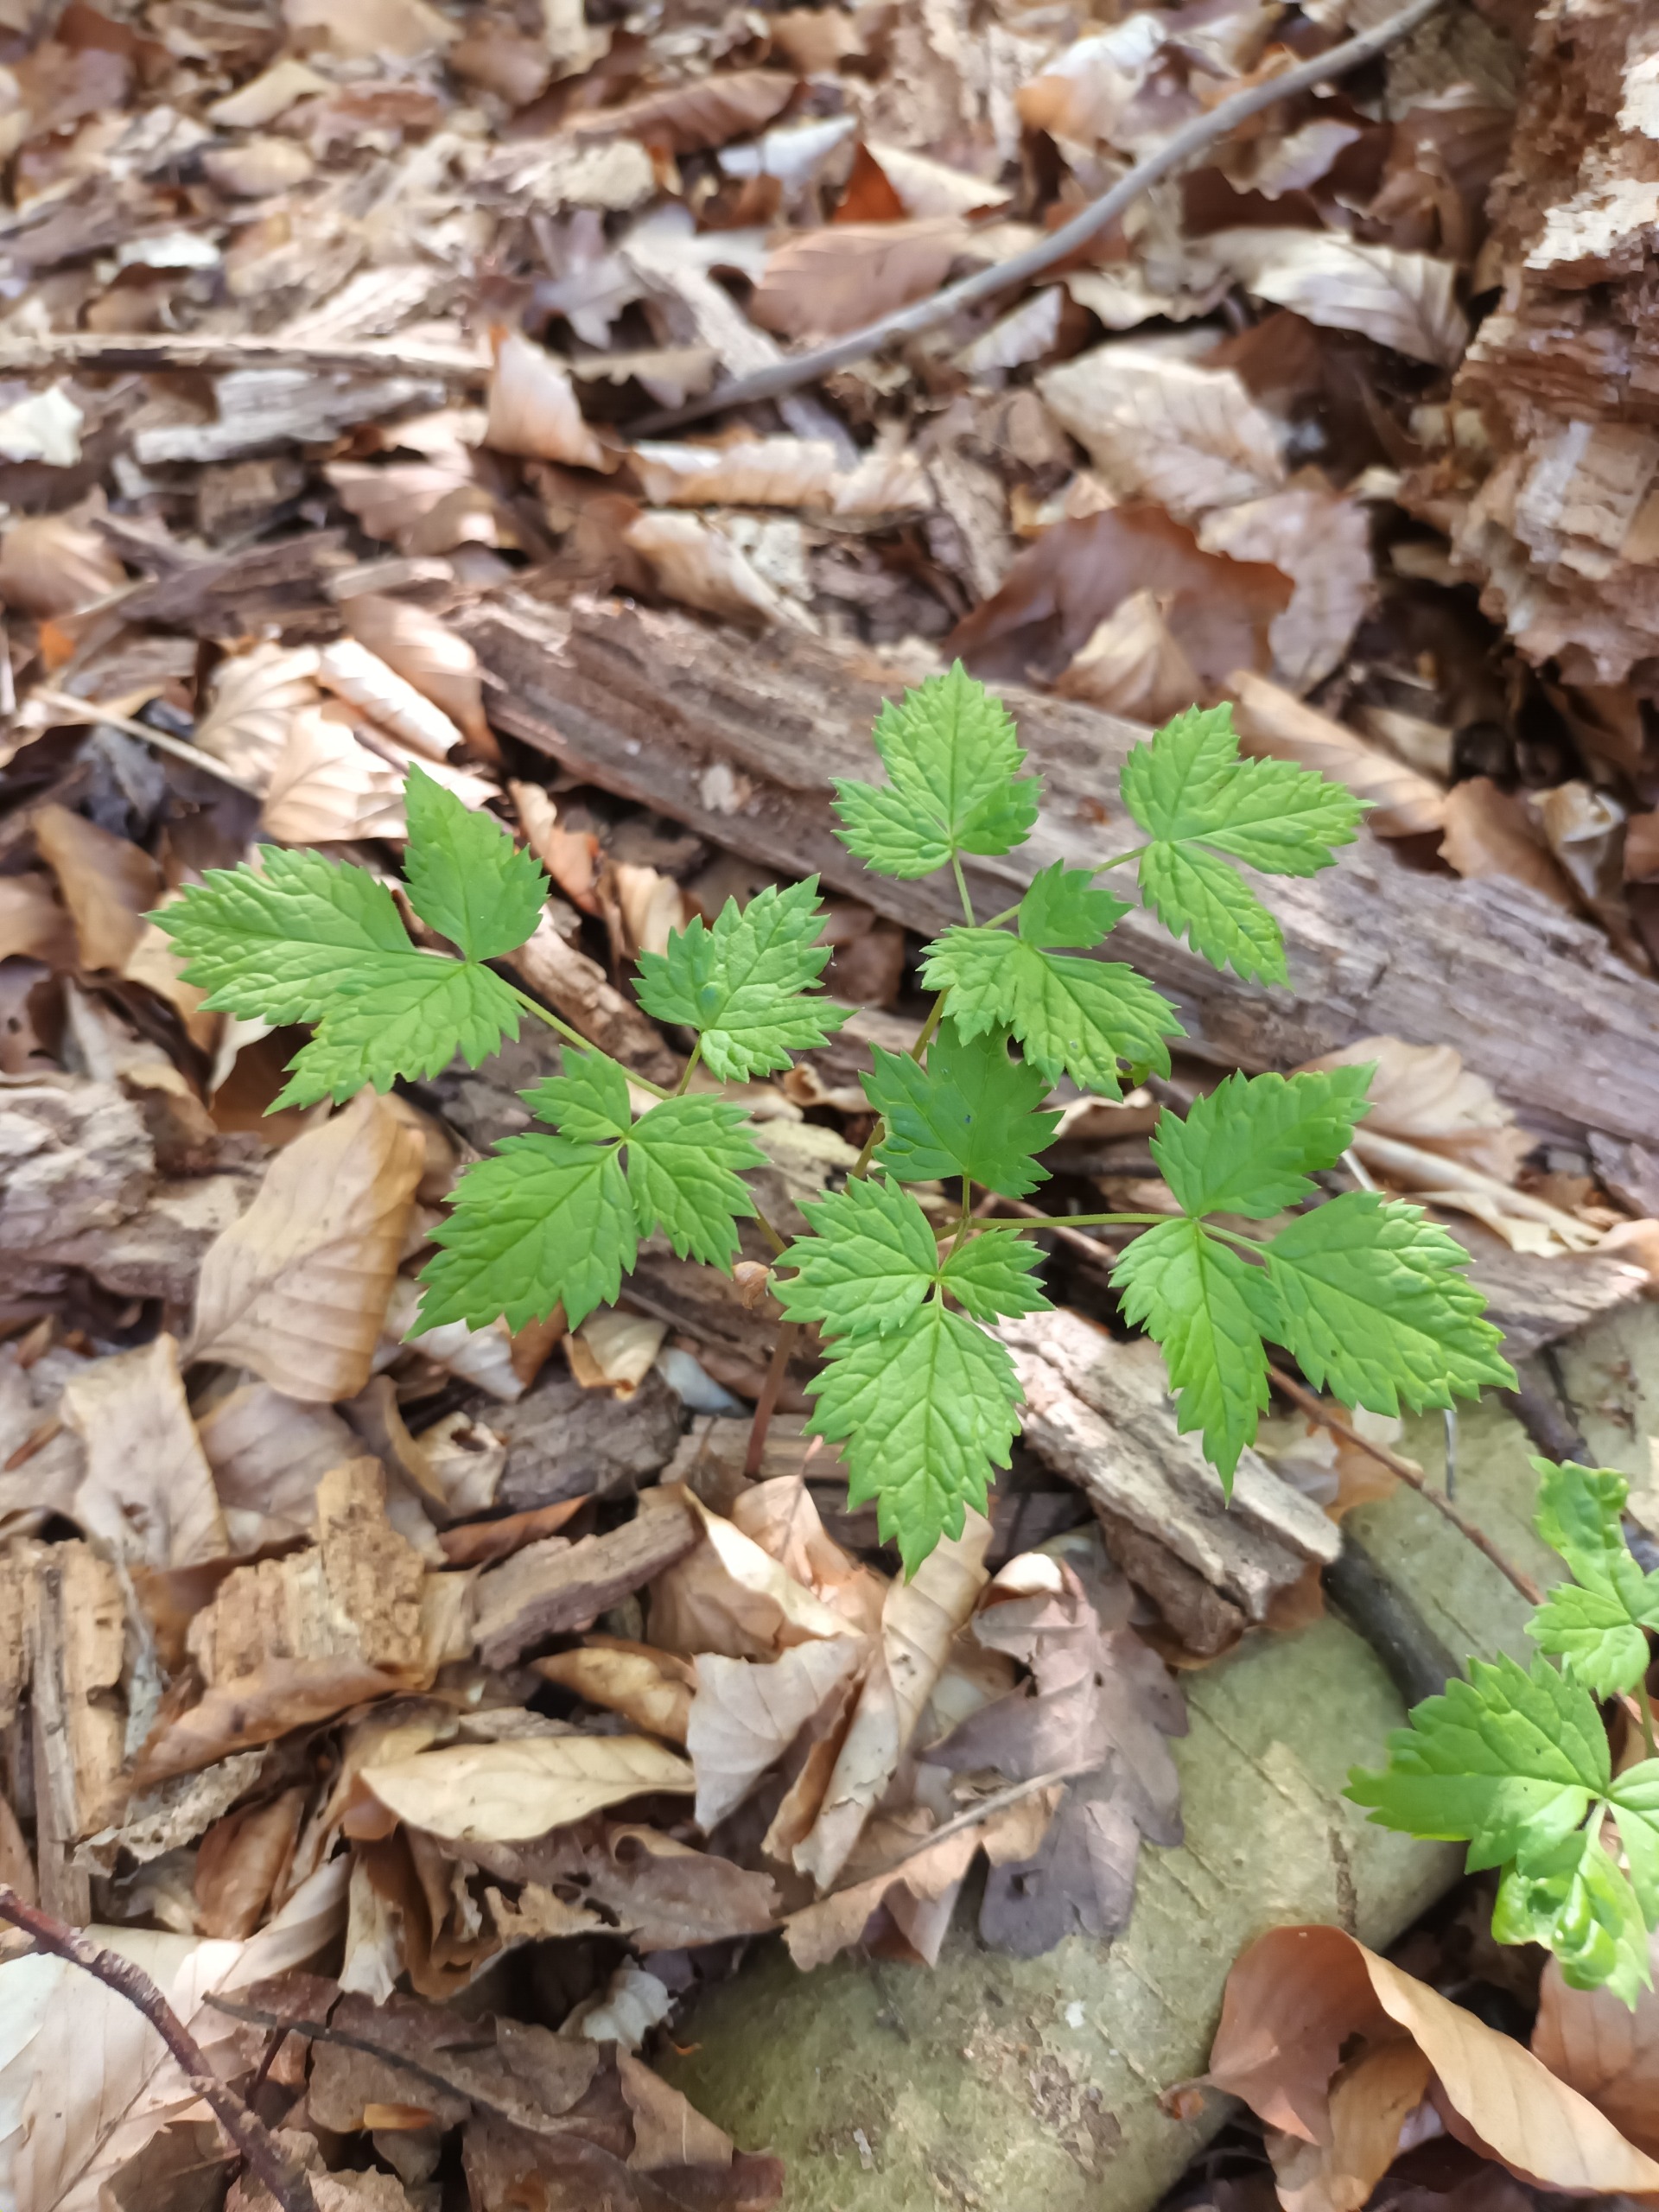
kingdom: Plantae
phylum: Tracheophyta
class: Magnoliopsida
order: Ranunculales
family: Ranunculaceae
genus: Actaea
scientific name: Actaea spicata
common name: Druemunke
